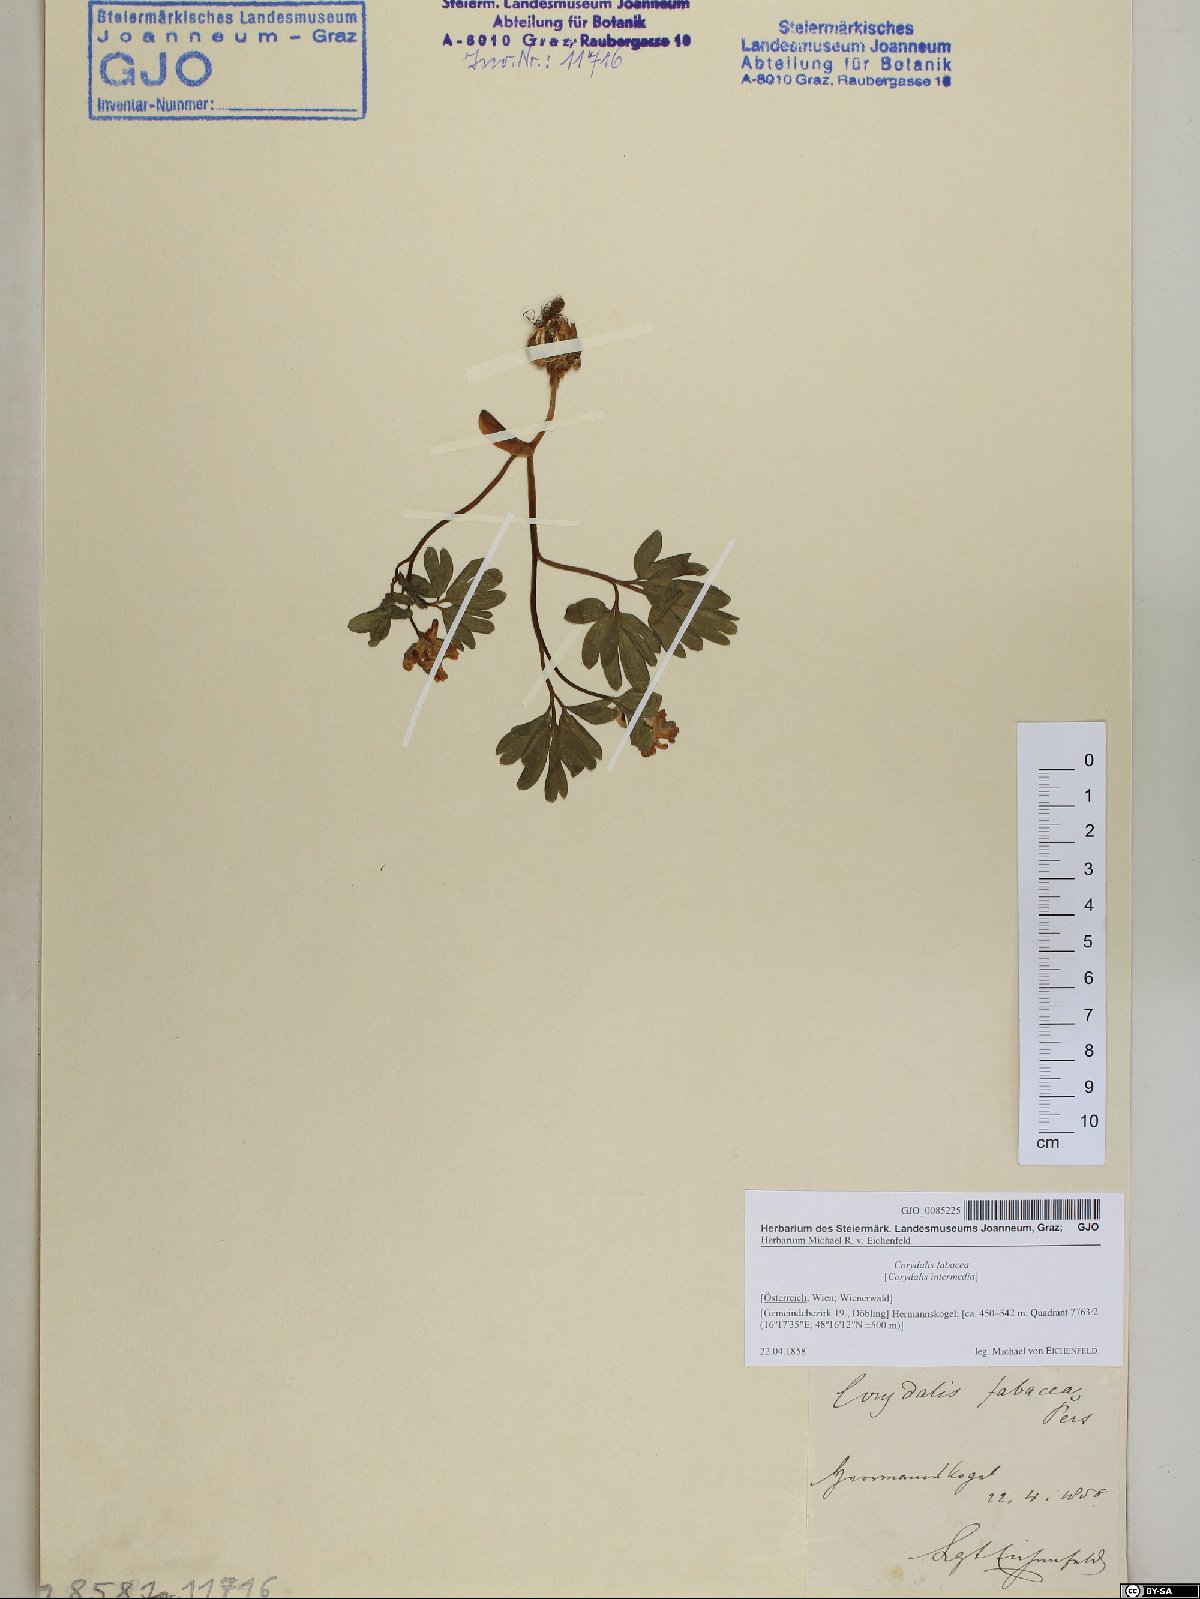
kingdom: Plantae
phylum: Tracheophyta
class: Magnoliopsida
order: Ranunculales
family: Papaveraceae
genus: Corydalis
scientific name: Corydalis intermedia
